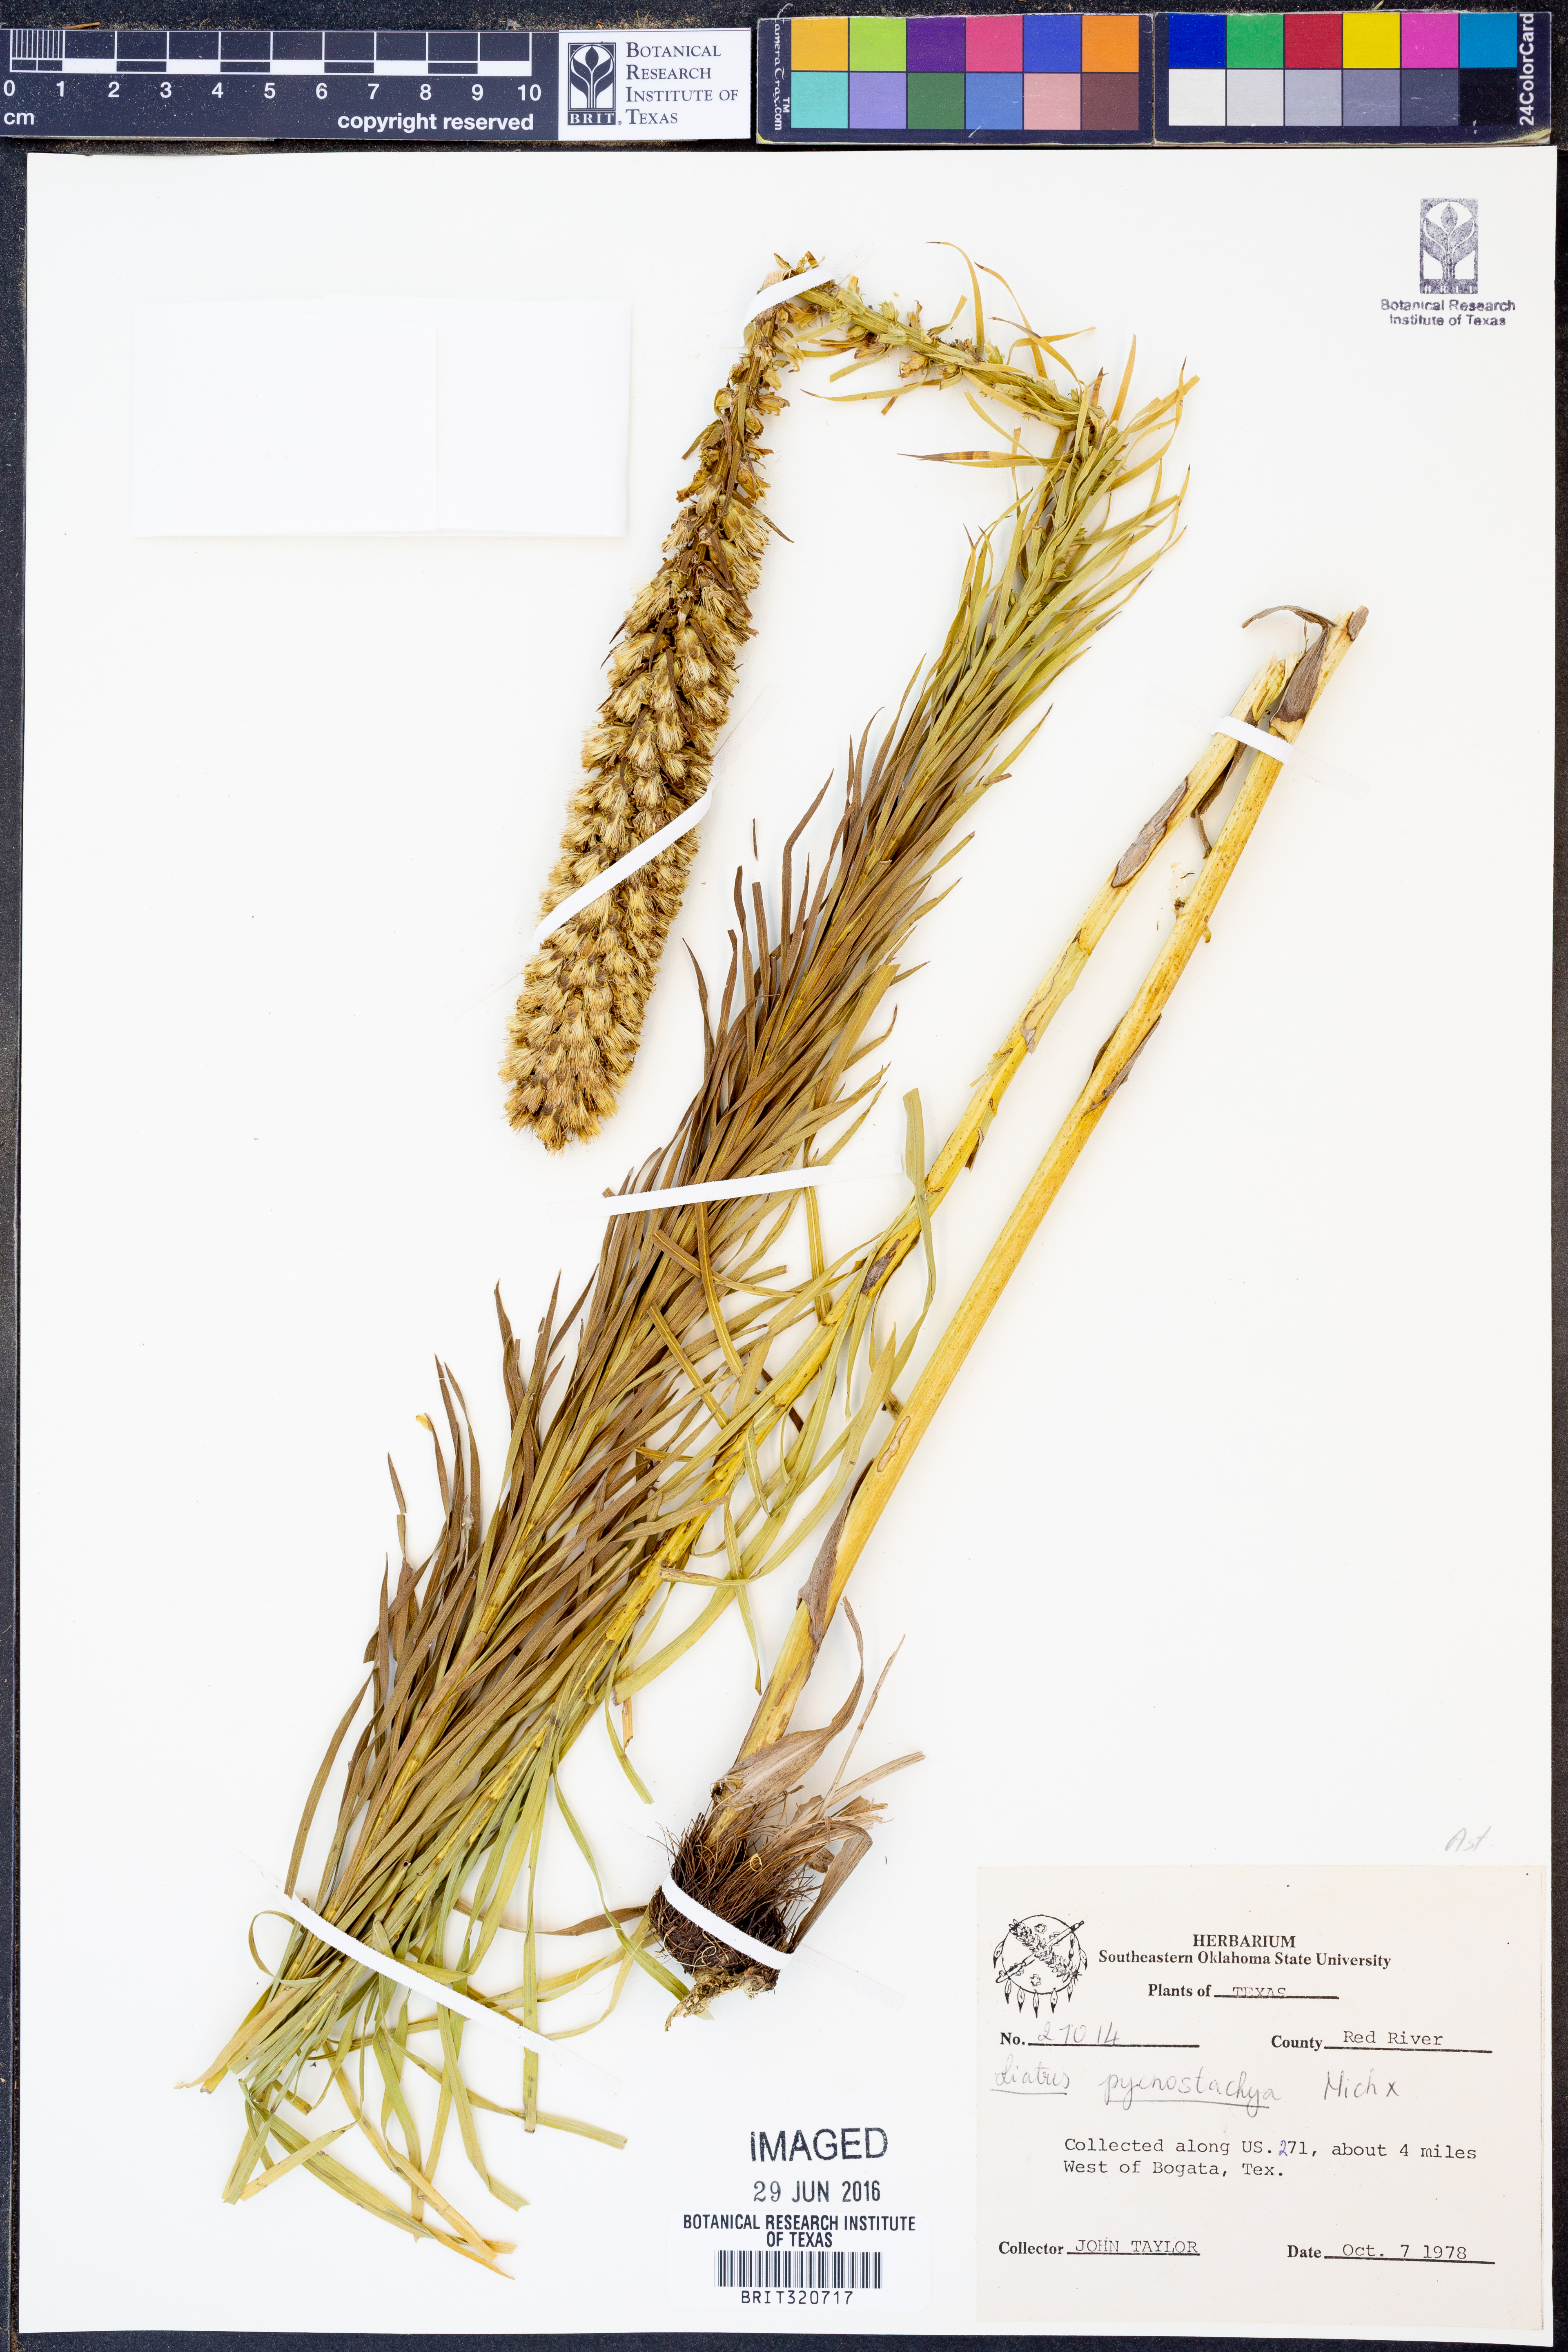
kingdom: Plantae
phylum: Tracheophyta
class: Magnoliopsida
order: Asterales
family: Asteraceae
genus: Liatris
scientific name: Liatris pycnostachya
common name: Cattail gayfeather
